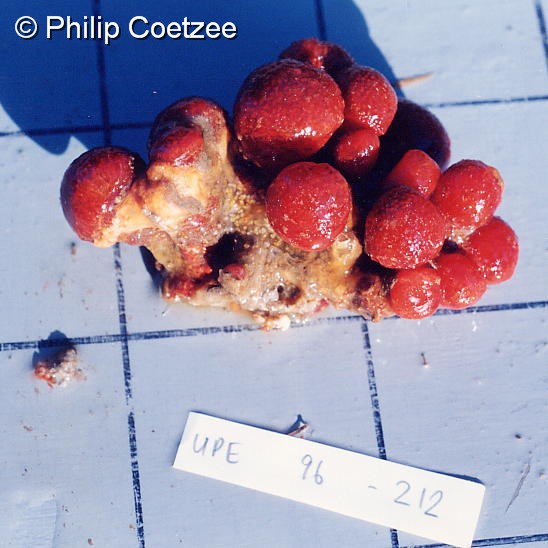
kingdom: Animalia
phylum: Chordata
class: Ascidiacea
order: Aplousobranchia
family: Polyclinidae
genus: Aplidiopsis
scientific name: Aplidiopsis tubiferus
